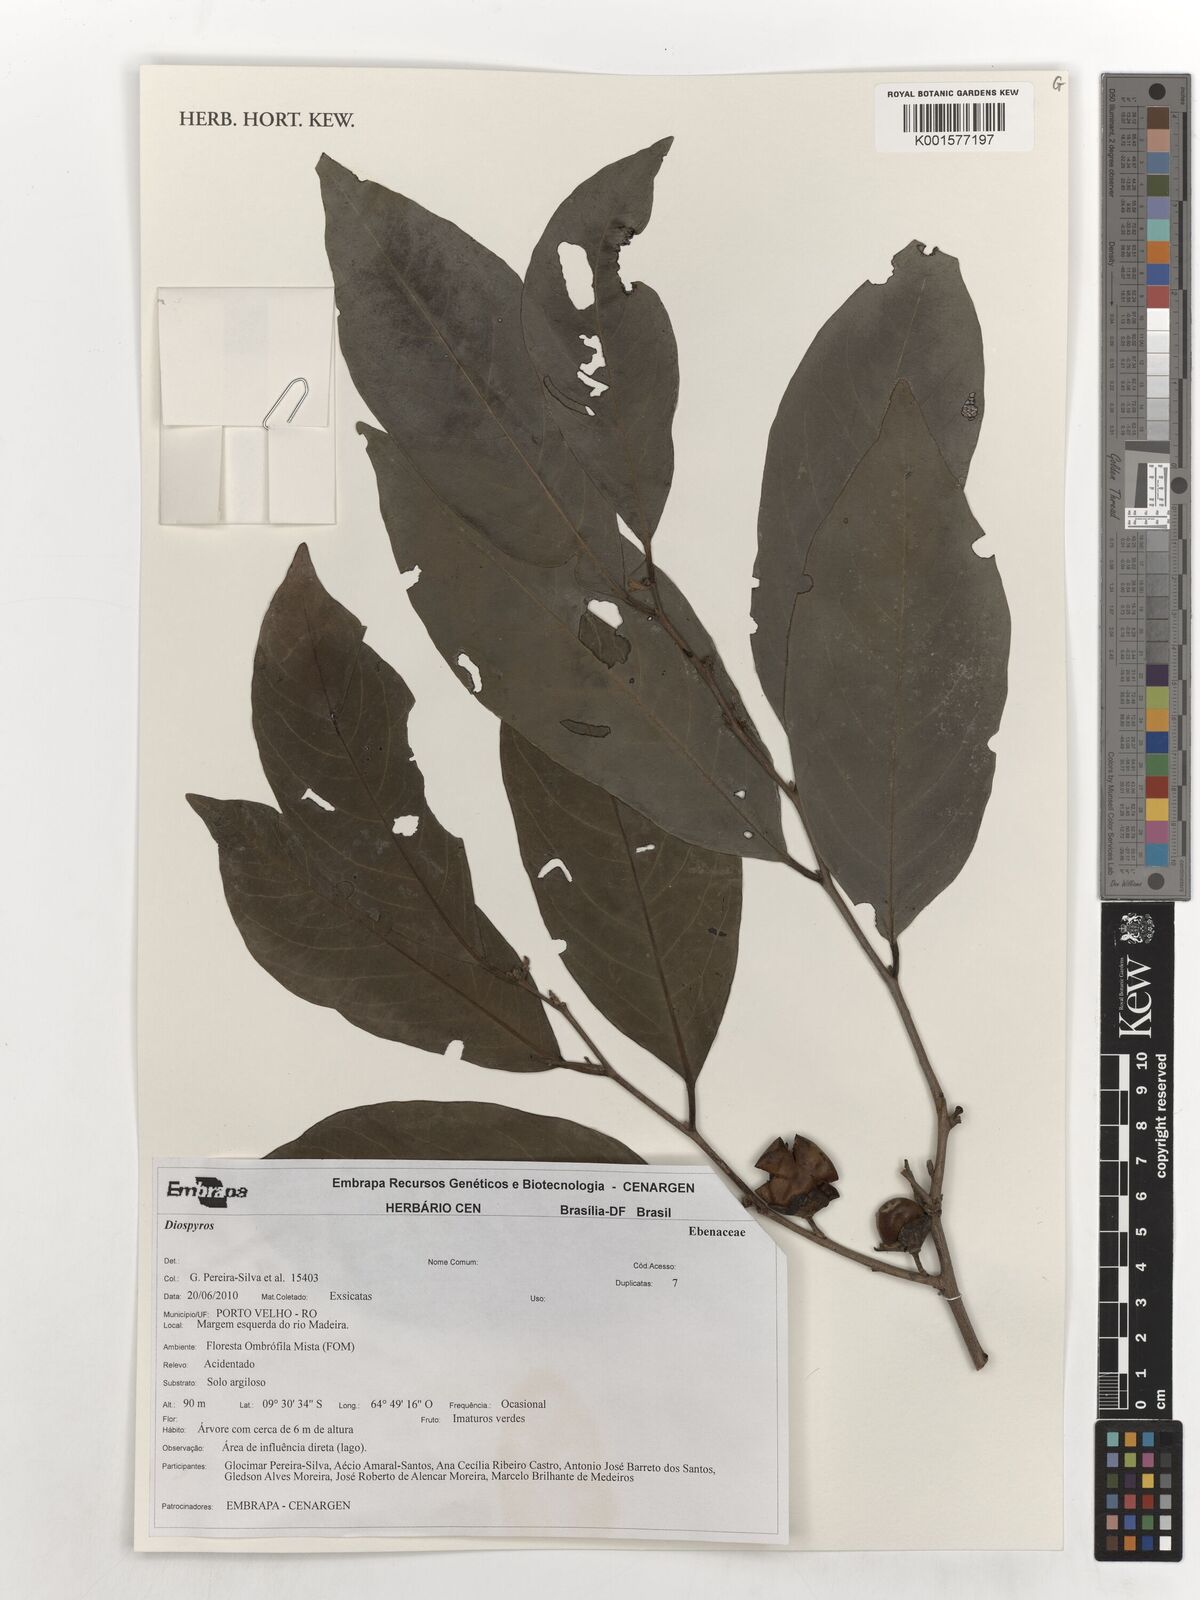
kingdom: Plantae
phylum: Tracheophyta
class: Magnoliopsida
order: Ericales
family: Ebenaceae
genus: Diospyros
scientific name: Diospyros
